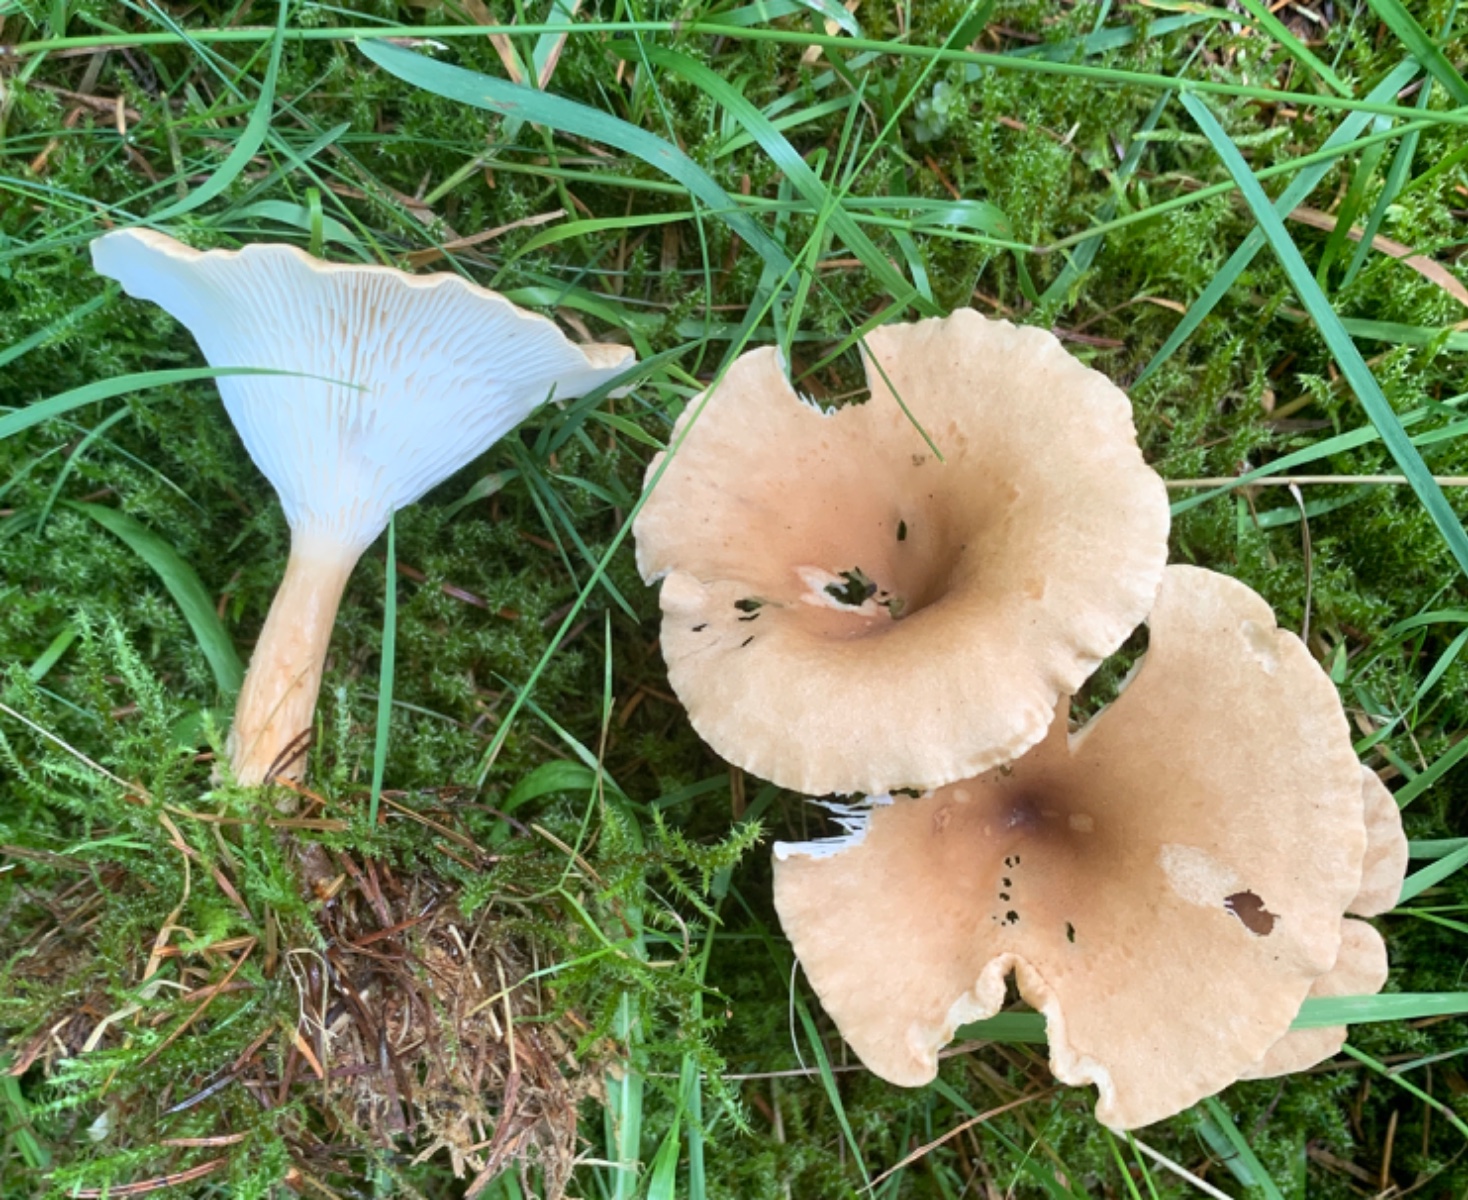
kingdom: Fungi
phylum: Basidiomycota
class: Agaricomycetes
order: Agaricales
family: Tricholomataceae
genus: Infundibulicybe
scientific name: Infundibulicybe gibba
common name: almindelig tragthat
